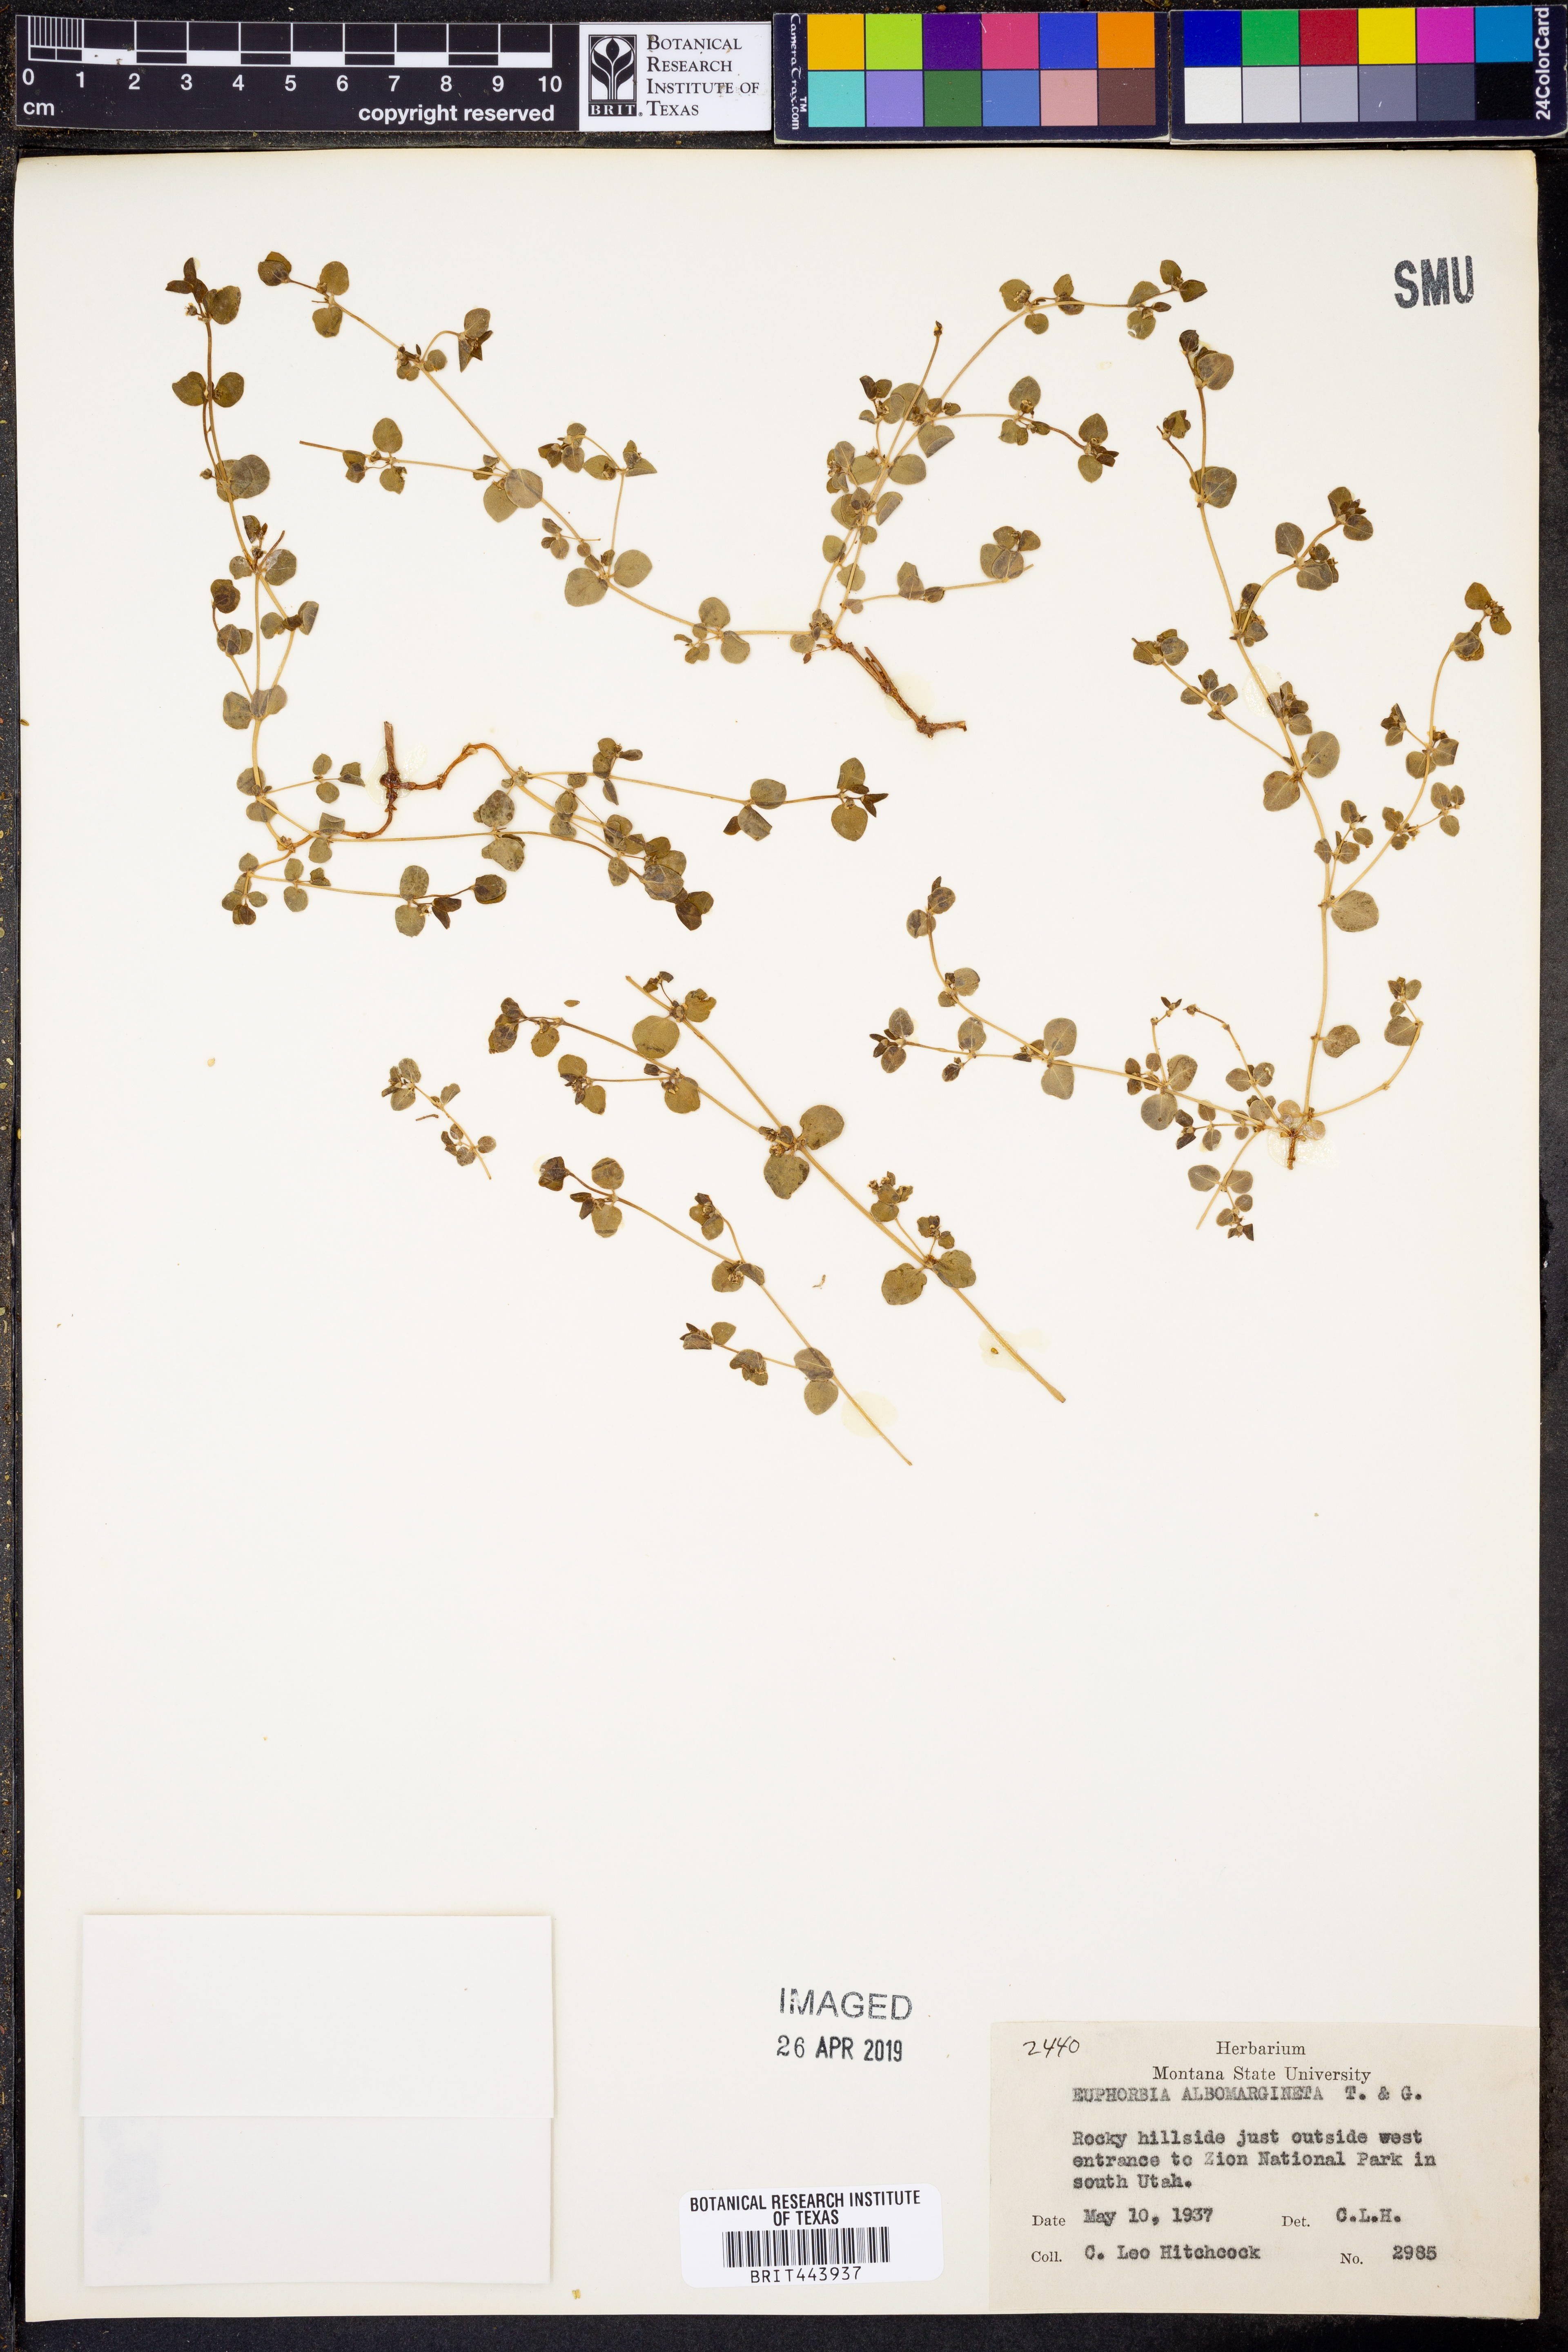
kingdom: Plantae
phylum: Tracheophyta
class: Magnoliopsida
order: Malpighiales
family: Euphorbiaceae
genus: Euphorbia
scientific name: Euphorbia albomarginata
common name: Whitemargin sandmat
